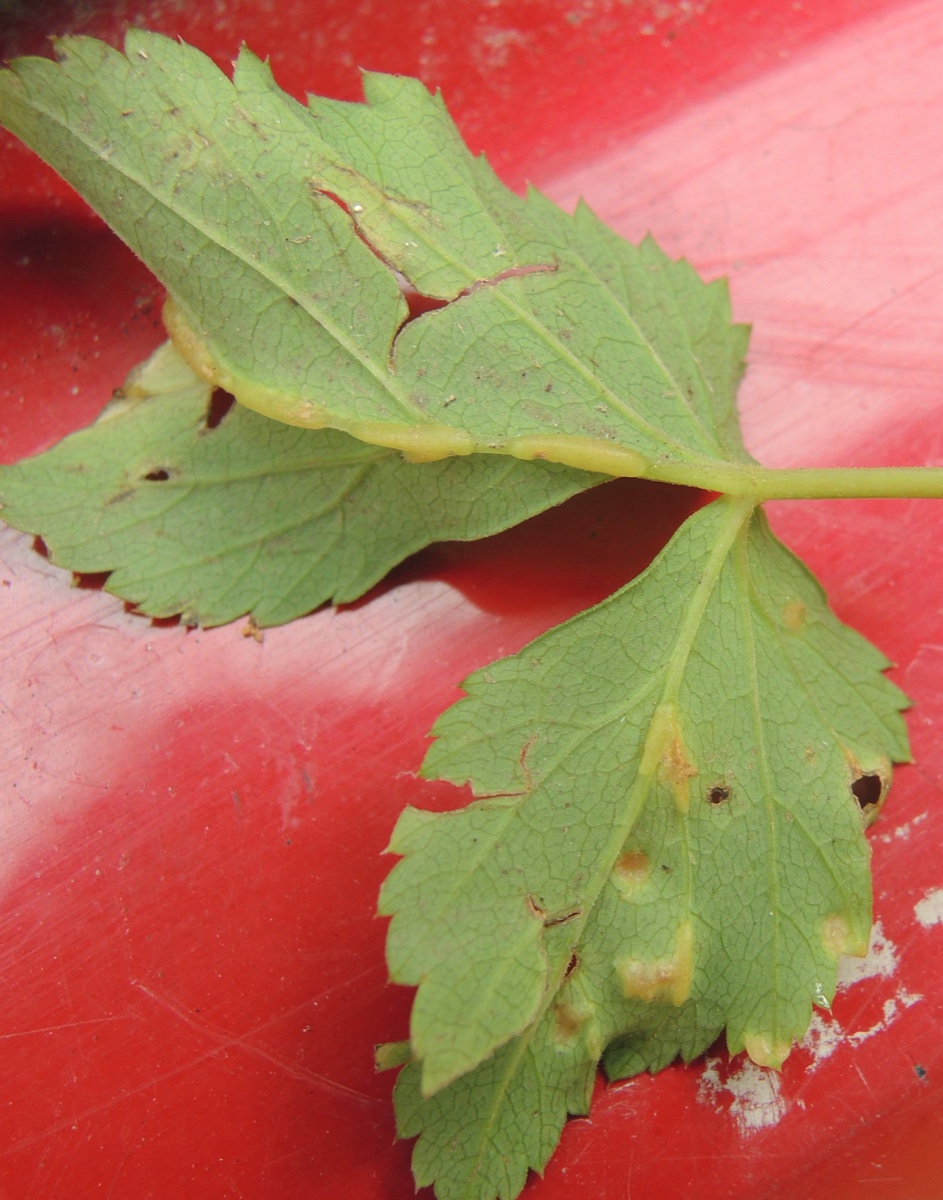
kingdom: Fungi
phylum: Ascomycota
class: Taphrinomycetes
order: Taphrinales
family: Taphrinaceae
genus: Protomyces
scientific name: Protomyces macrosporus
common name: skvalderkål-vablesæk
